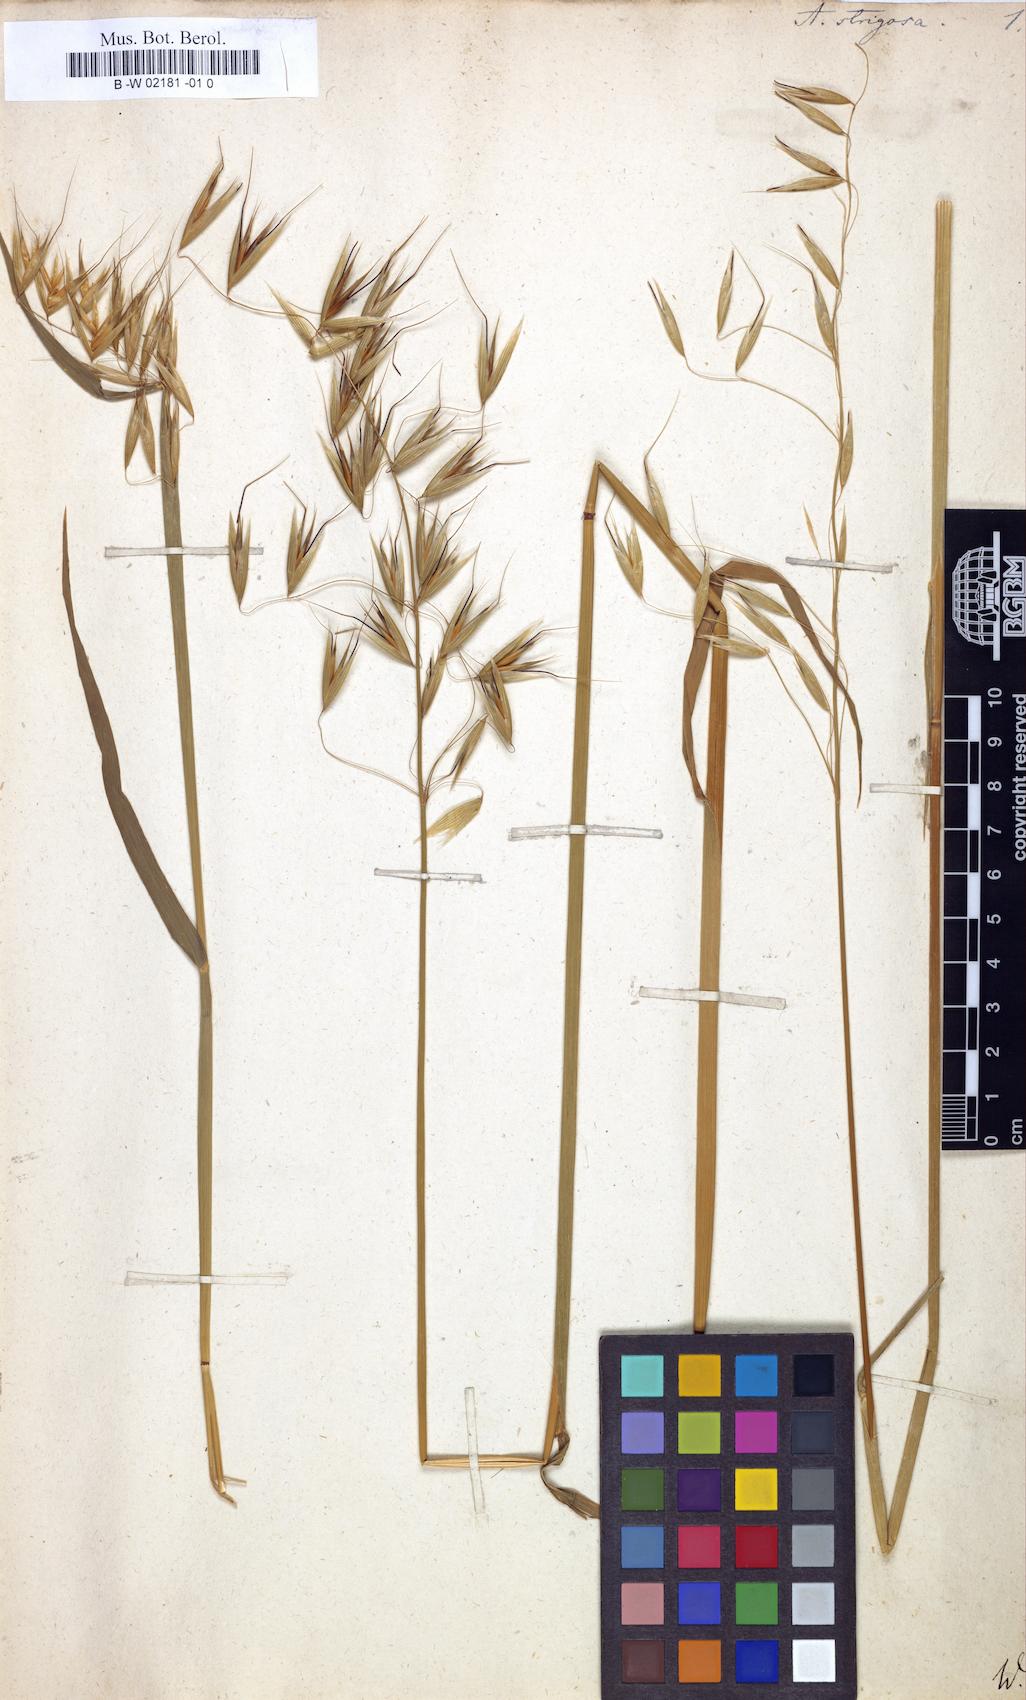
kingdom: Plantae
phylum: Tracheophyta
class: Liliopsida
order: Poales
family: Poaceae
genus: Avena
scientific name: Avena strigosa
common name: Bristle oat
